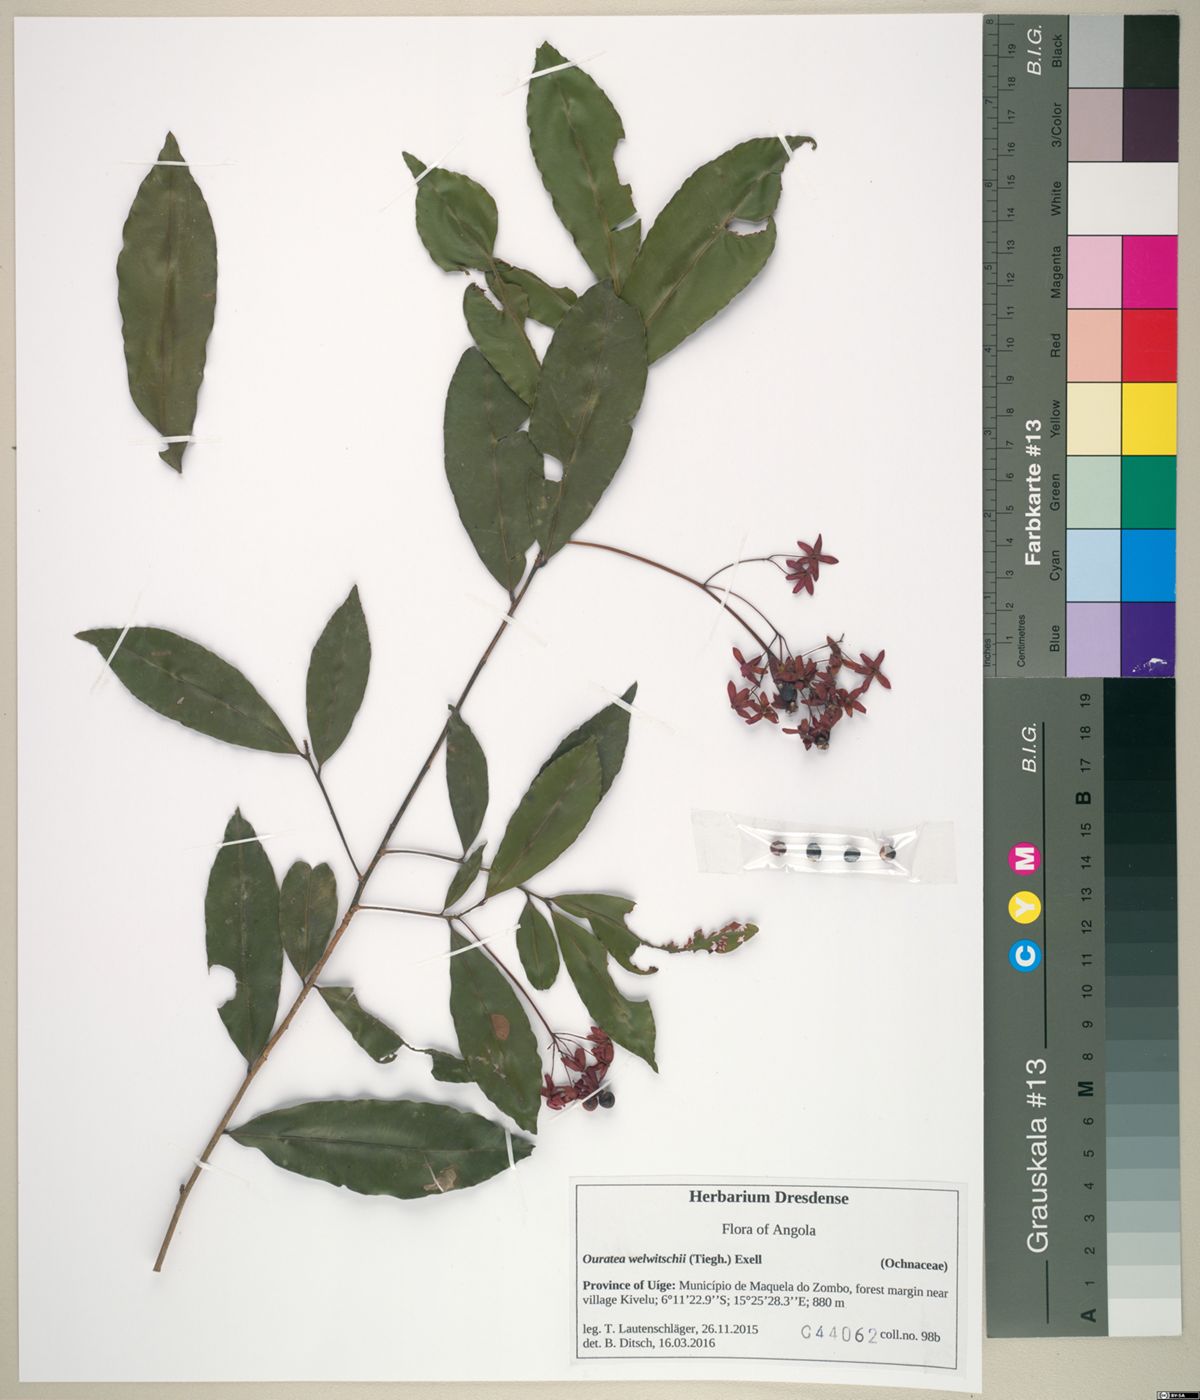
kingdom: Plantae
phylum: Tracheophyta
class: Magnoliopsida
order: Malpighiales
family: Ochnaceae
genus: Rhabdophyllum
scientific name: Rhabdophyllum welwitschii
